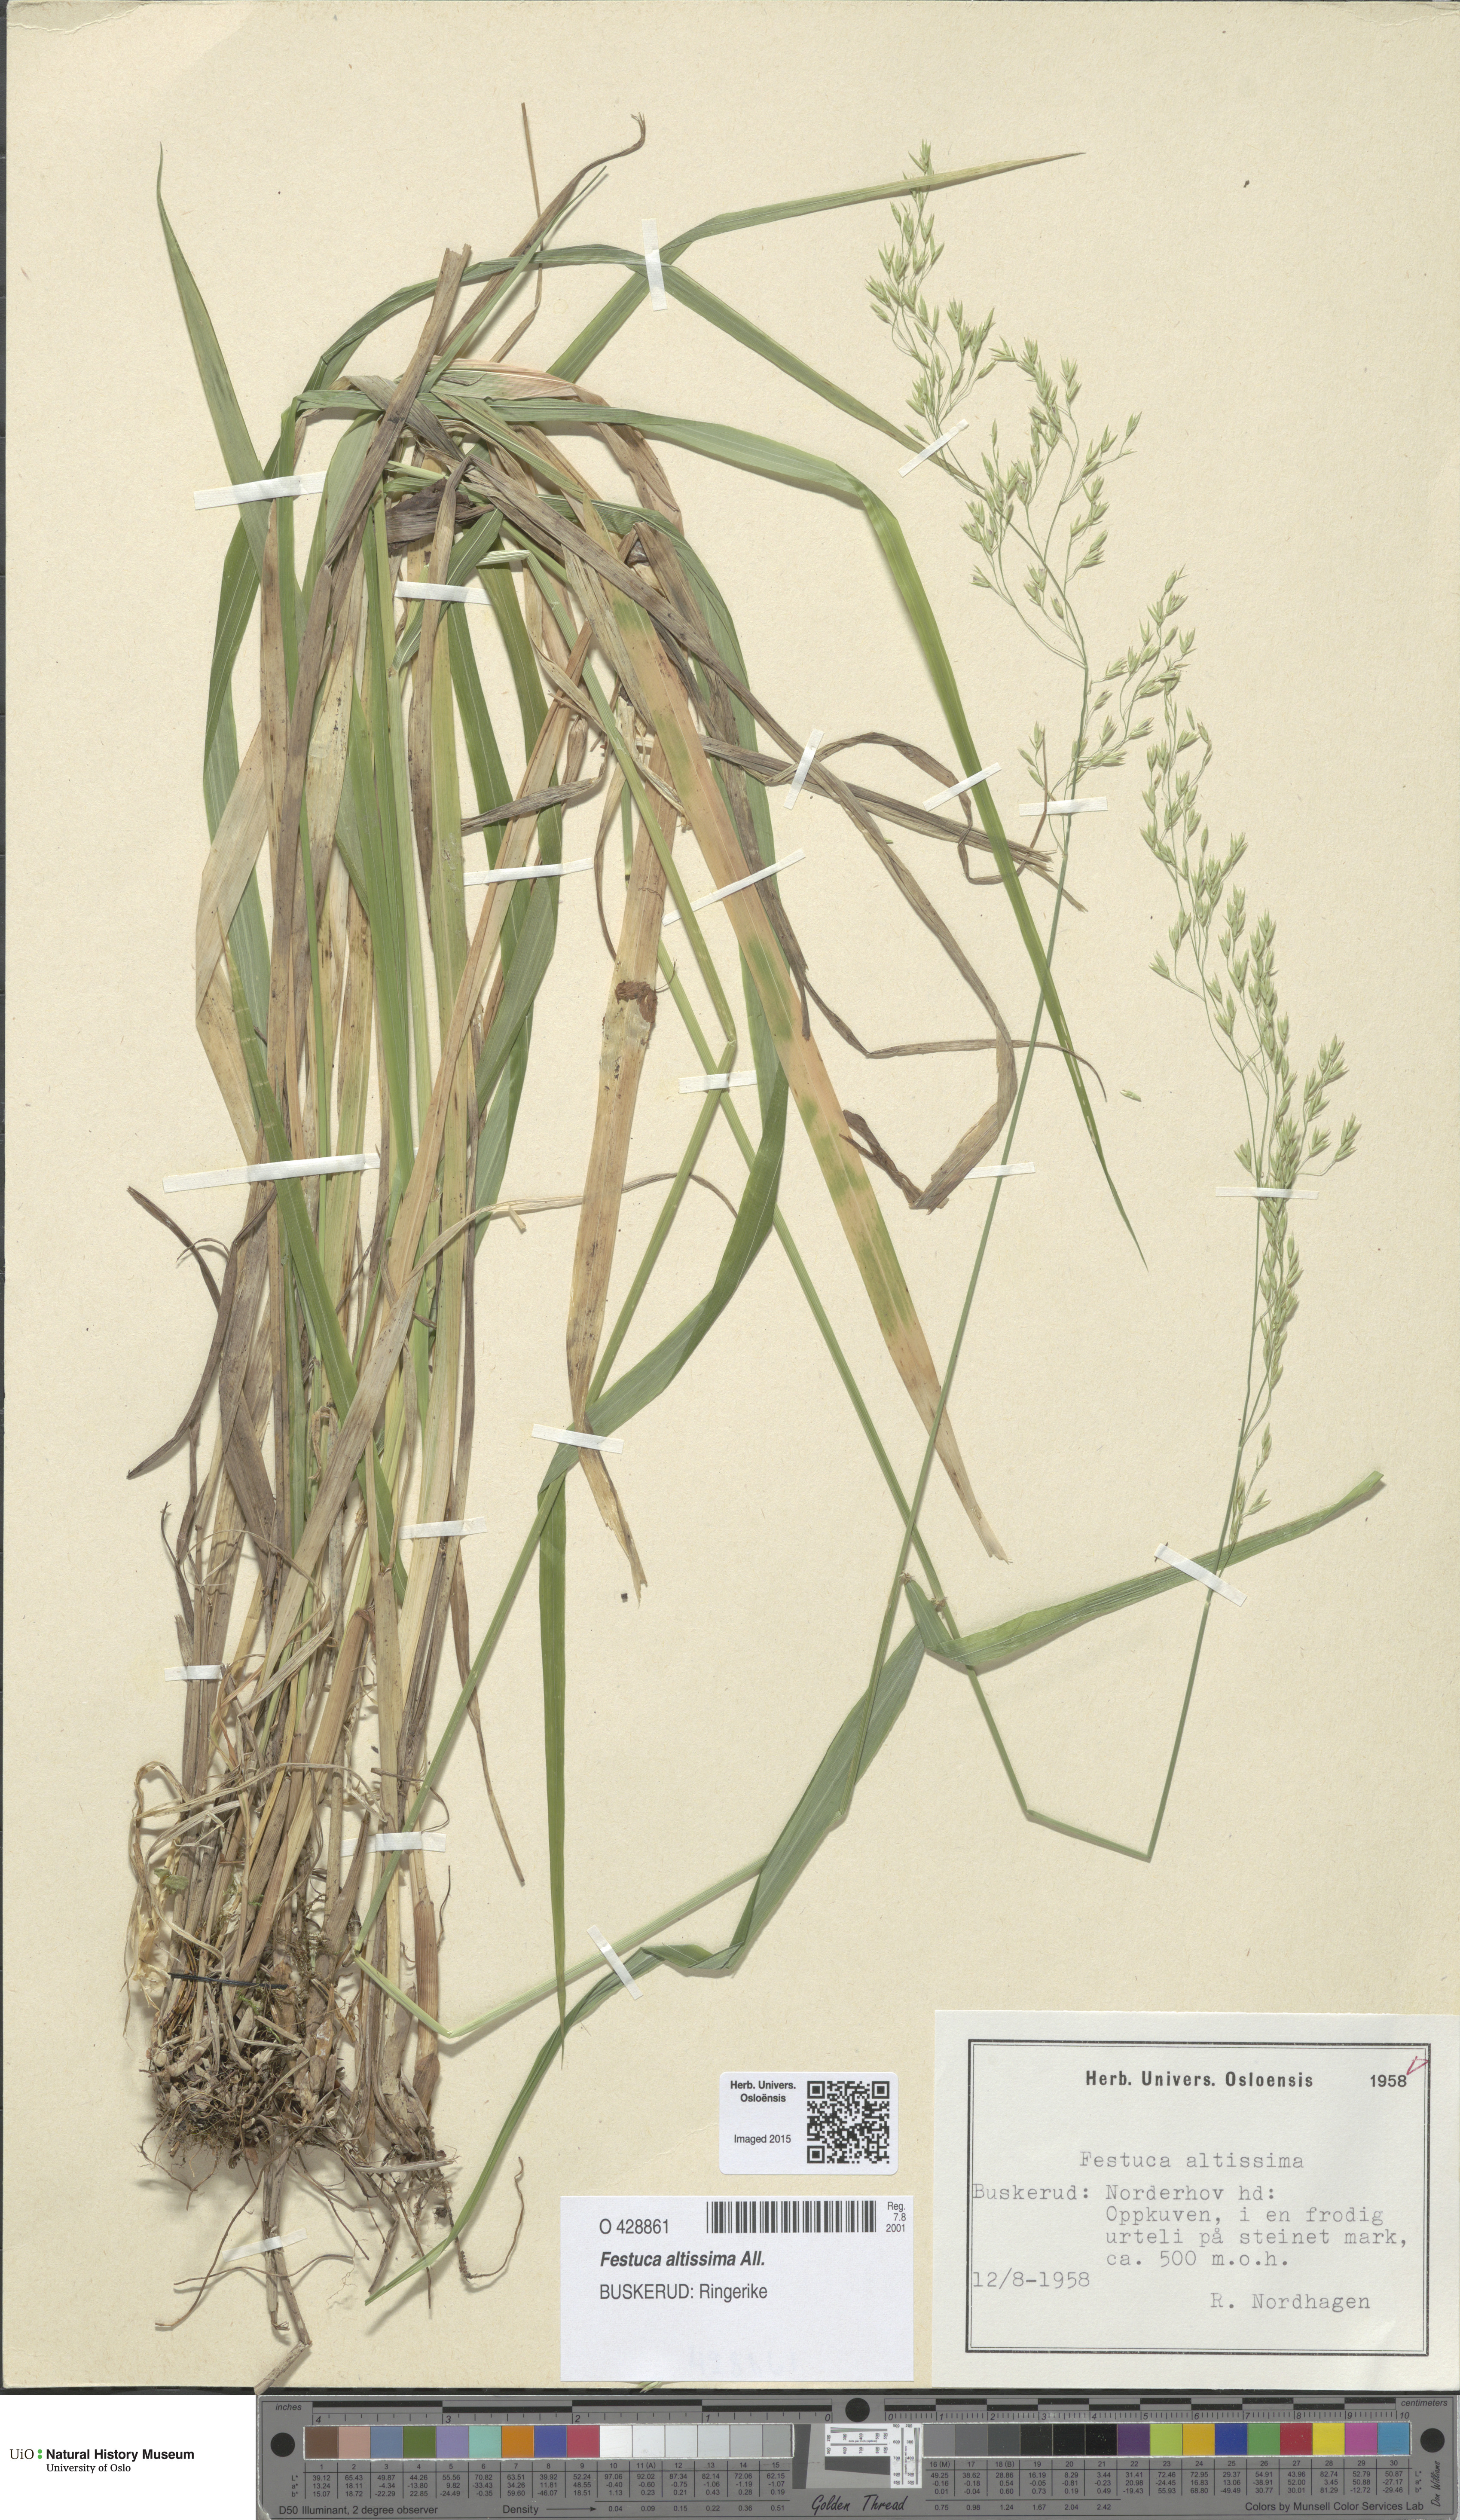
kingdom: Plantae
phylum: Tracheophyta
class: Liliopsida
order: Poales
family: Poaceae
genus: Festuca
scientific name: Festuca altissima
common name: Wood fescue
